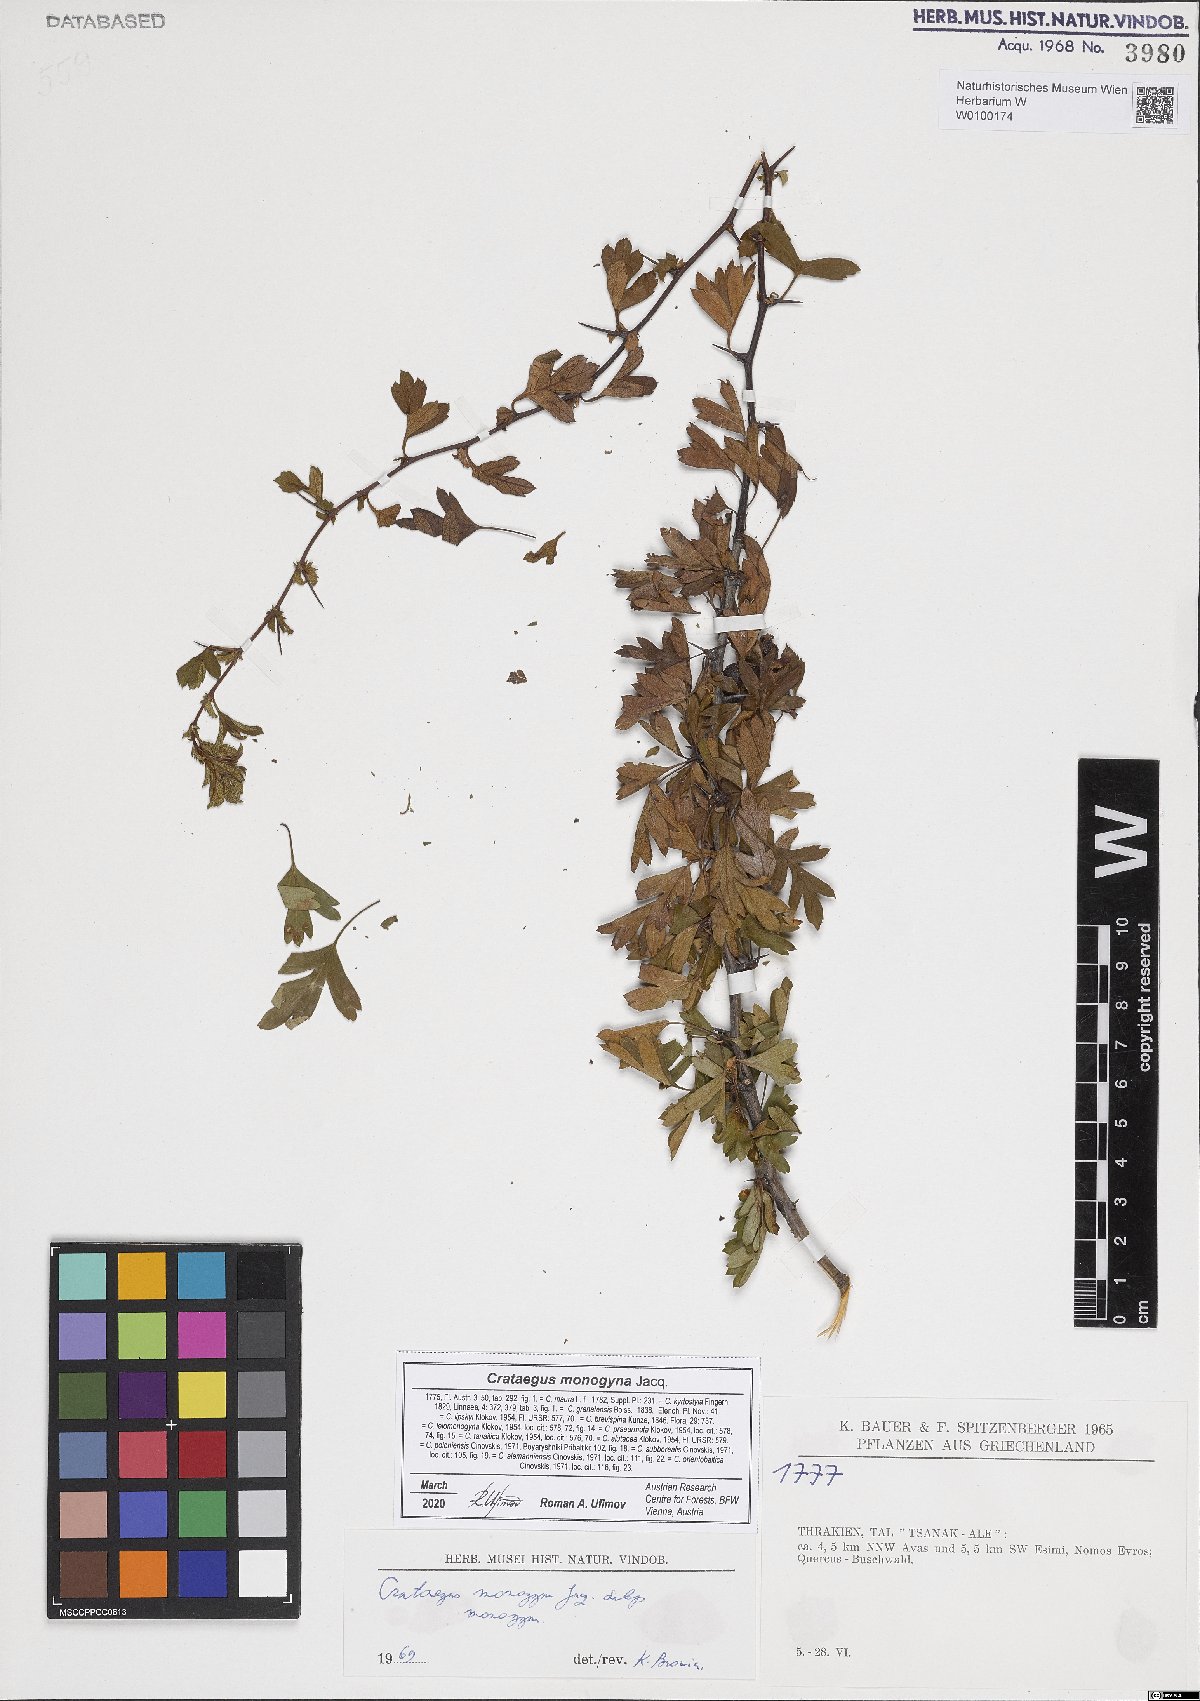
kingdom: Plantae
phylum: Tracheophyta
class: Magnoliopsida
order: Rosales
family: Rosaceae
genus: Crataegus
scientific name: Crataegus monogyna
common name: Hawthorn
